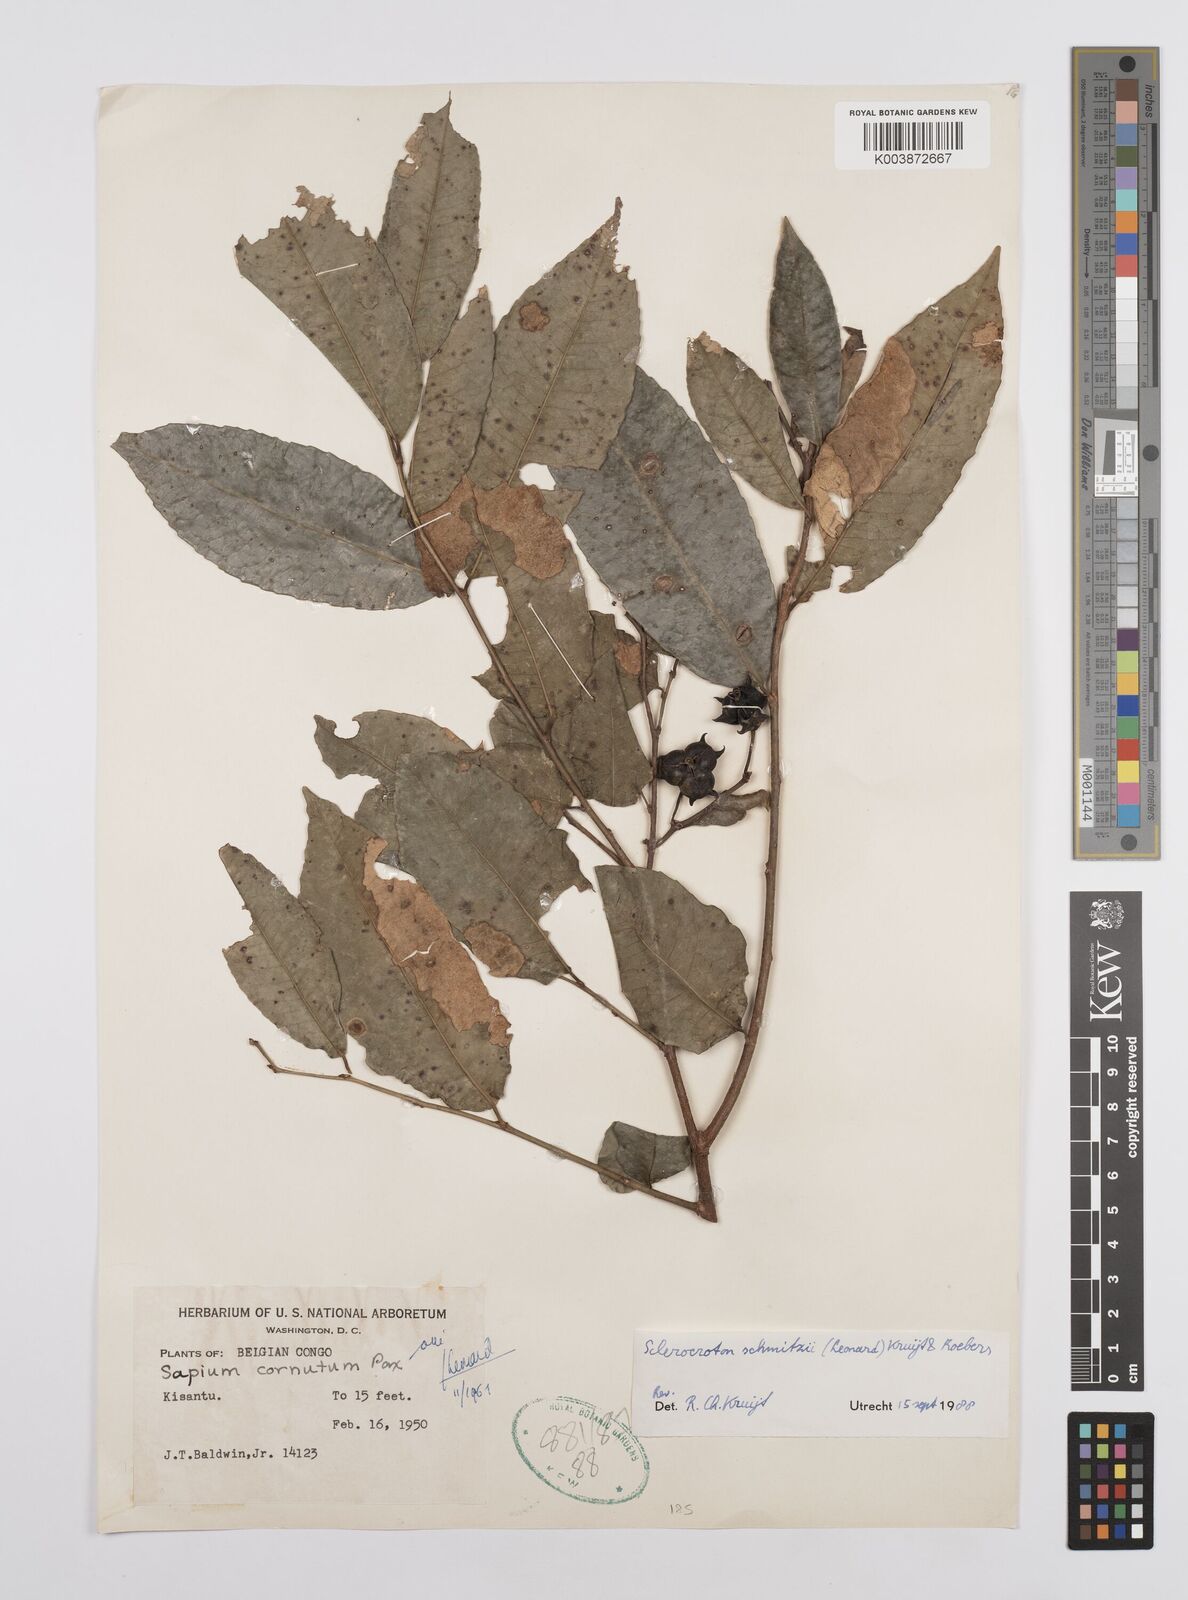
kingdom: Plantae
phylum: Tracheophyta
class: Magnoliopsida
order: Malpighiales
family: Euphorbiaceae
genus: Sclerocroton
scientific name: Sclerocroton cornutus
